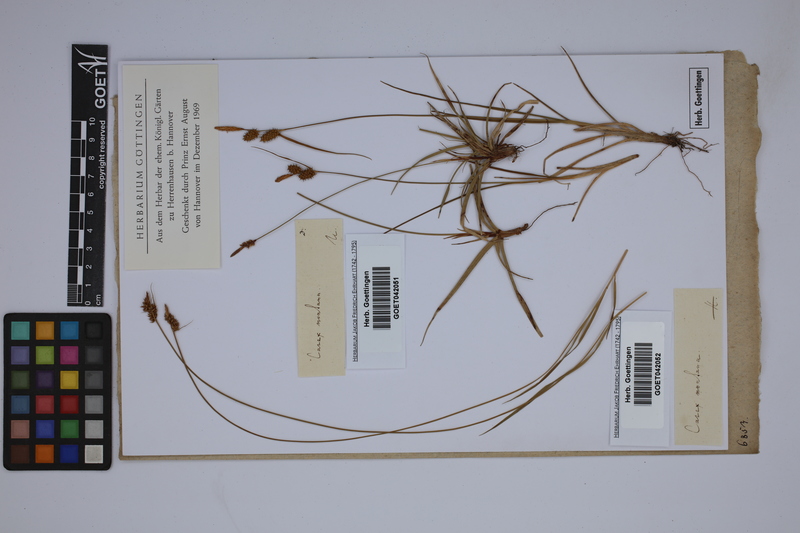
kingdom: Plantae
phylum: Tracheophyta
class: Liliopsida
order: Poales
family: Cyperaceae
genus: Carex
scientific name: Carex montana
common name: Soft-leaved sedge
